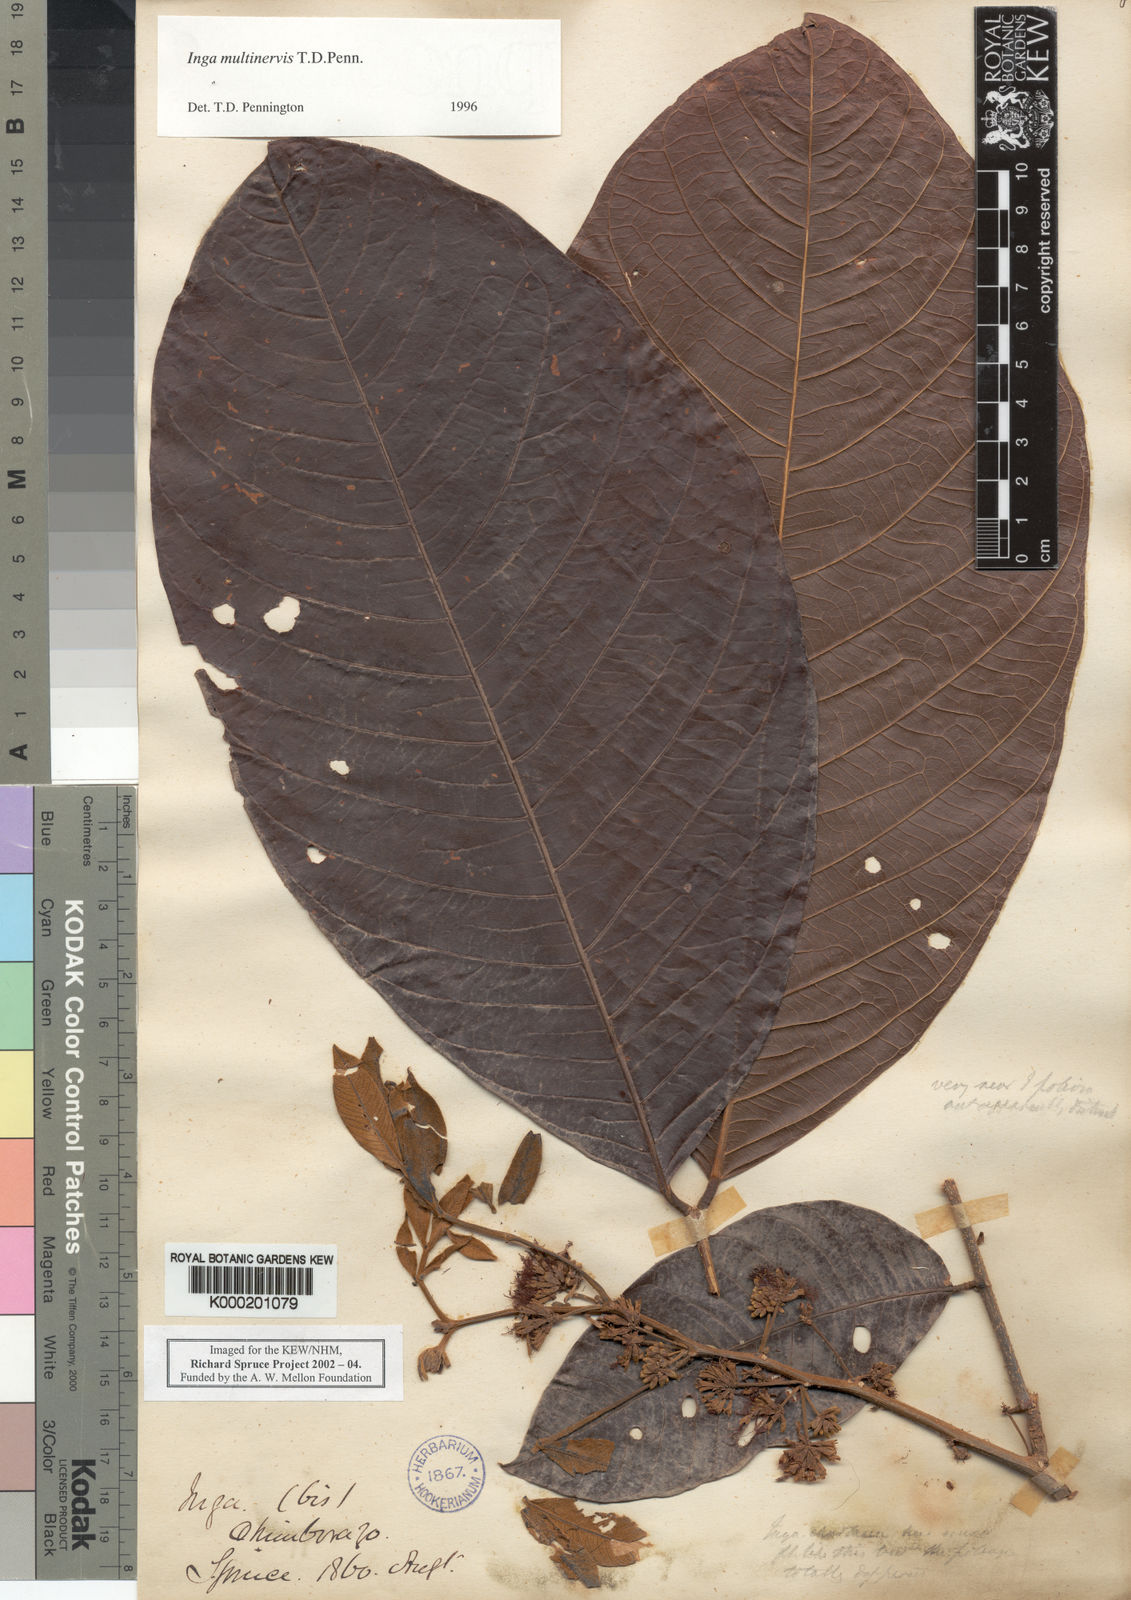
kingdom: Plantae
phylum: Tracheophyta
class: Magnoliopsida
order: Fabales
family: Fabaceae
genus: Inga
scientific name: Inga multinervis
